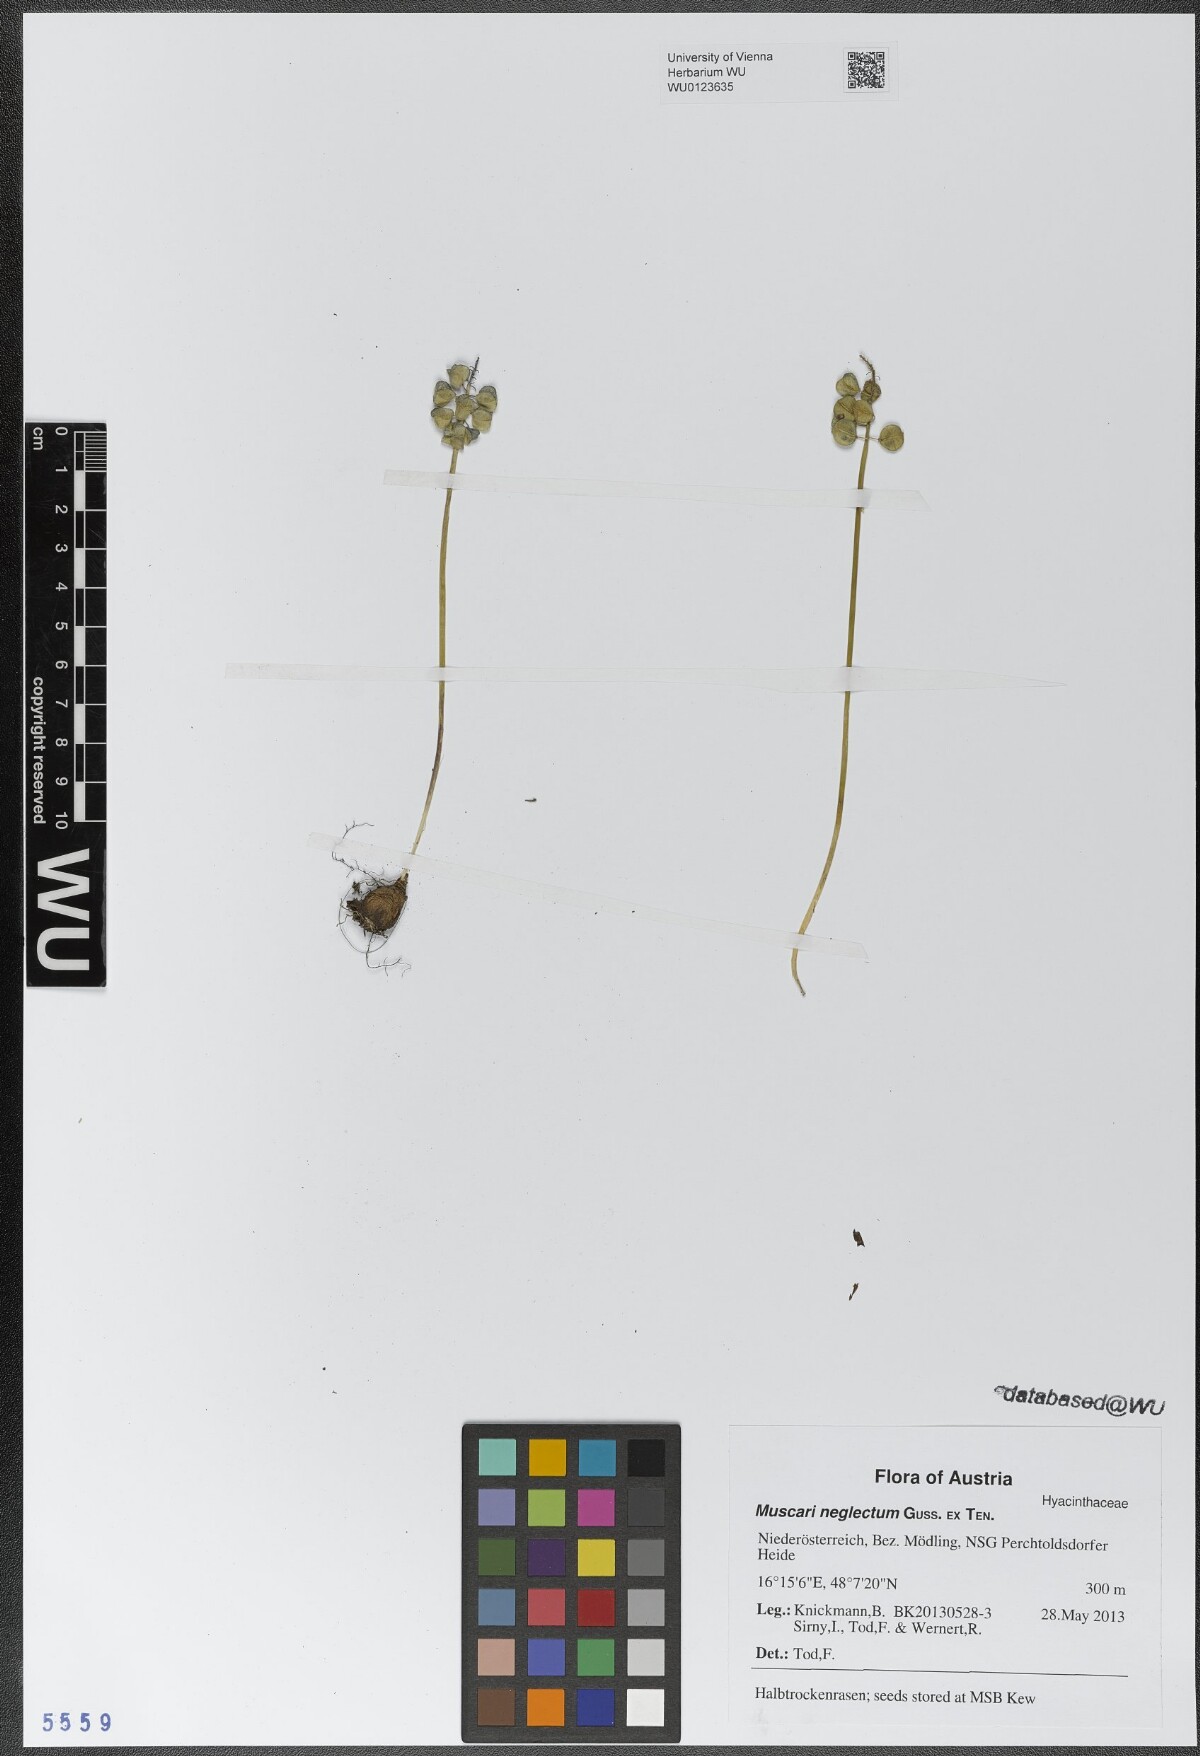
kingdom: Plantae
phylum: Tracheophyta
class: Liliopsida
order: Asparagales
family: Asparagaceae
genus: Muscari
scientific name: Muscari neglectum
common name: Grape-hyacinth
